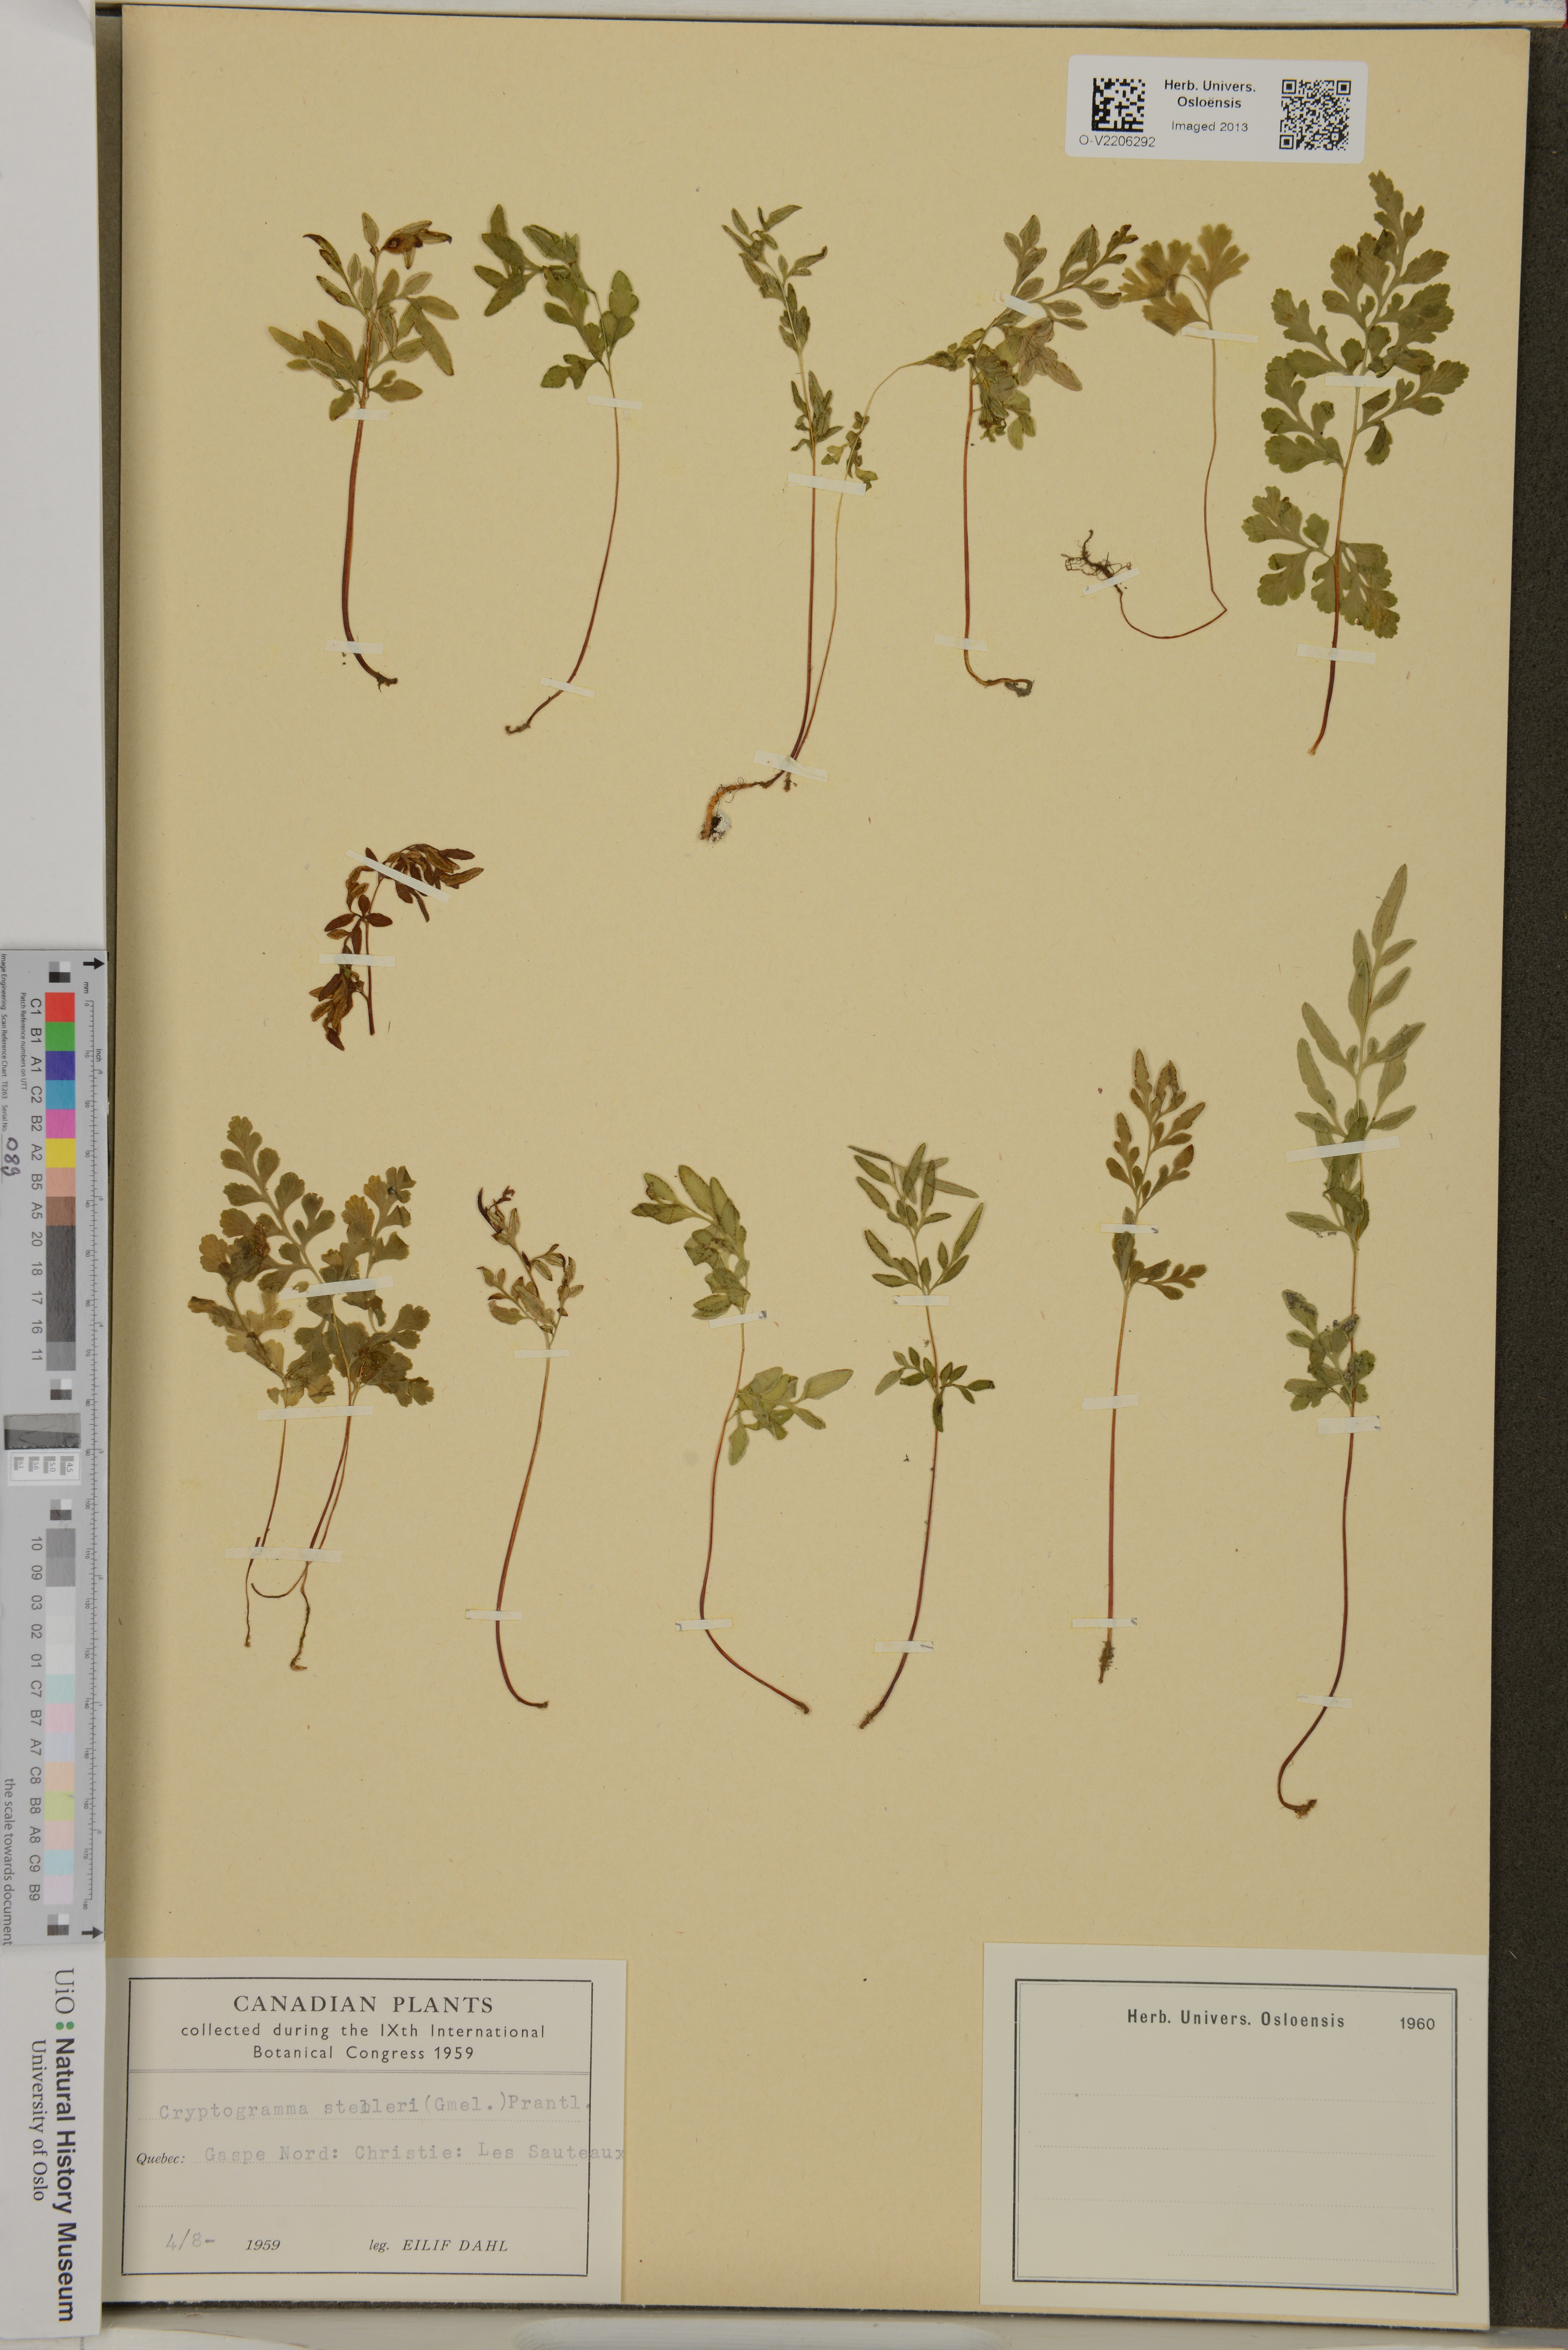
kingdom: Plantae
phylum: Tracheophyta
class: Polypodiopsida
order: Polypodiales
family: Pteridaceae
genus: Cryptogramma
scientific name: Cryptogramma stelleri
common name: Cliff-brake
